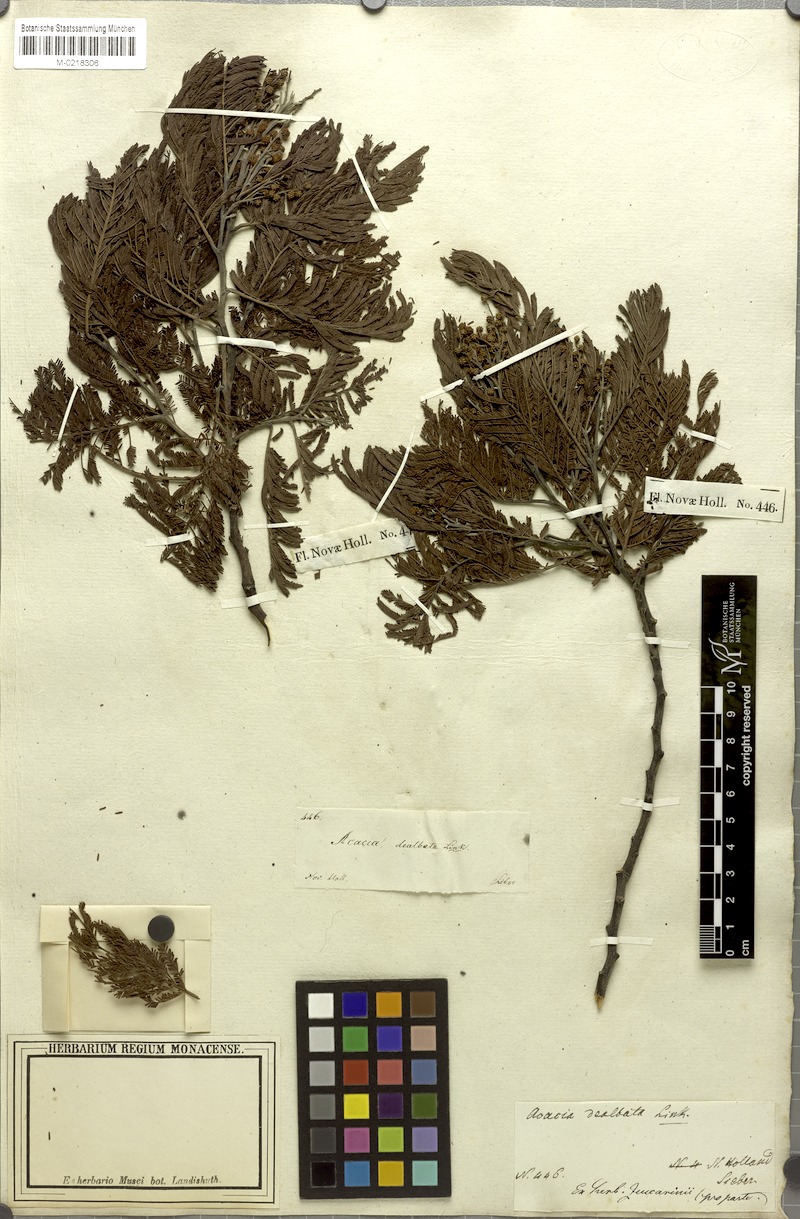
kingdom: Plantae
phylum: Tracheophyta
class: Magnoliopsida
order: Fabales
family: Fabaceae
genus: Acacia
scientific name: Acacia dealbata
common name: Silver wattle
